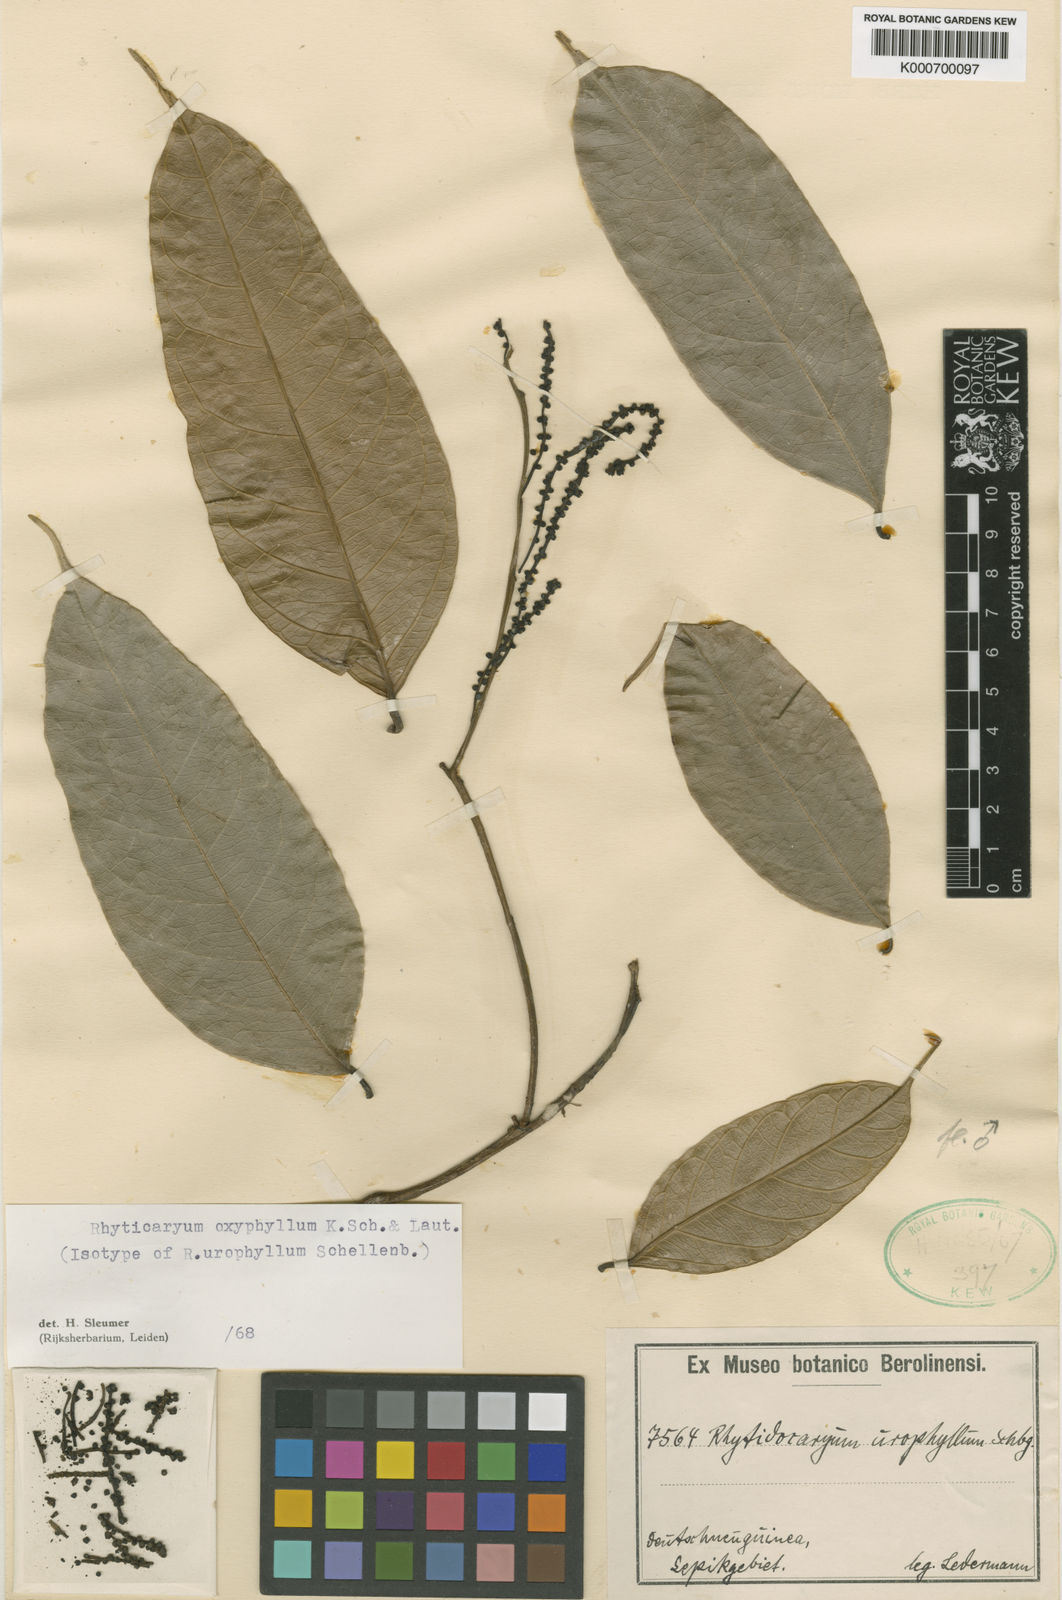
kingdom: Plantae
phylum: Tracheophyta
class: Magnoliopsida
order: Icacinales
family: Icacinaceae
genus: Ryticaryum
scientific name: Ryticaryum
